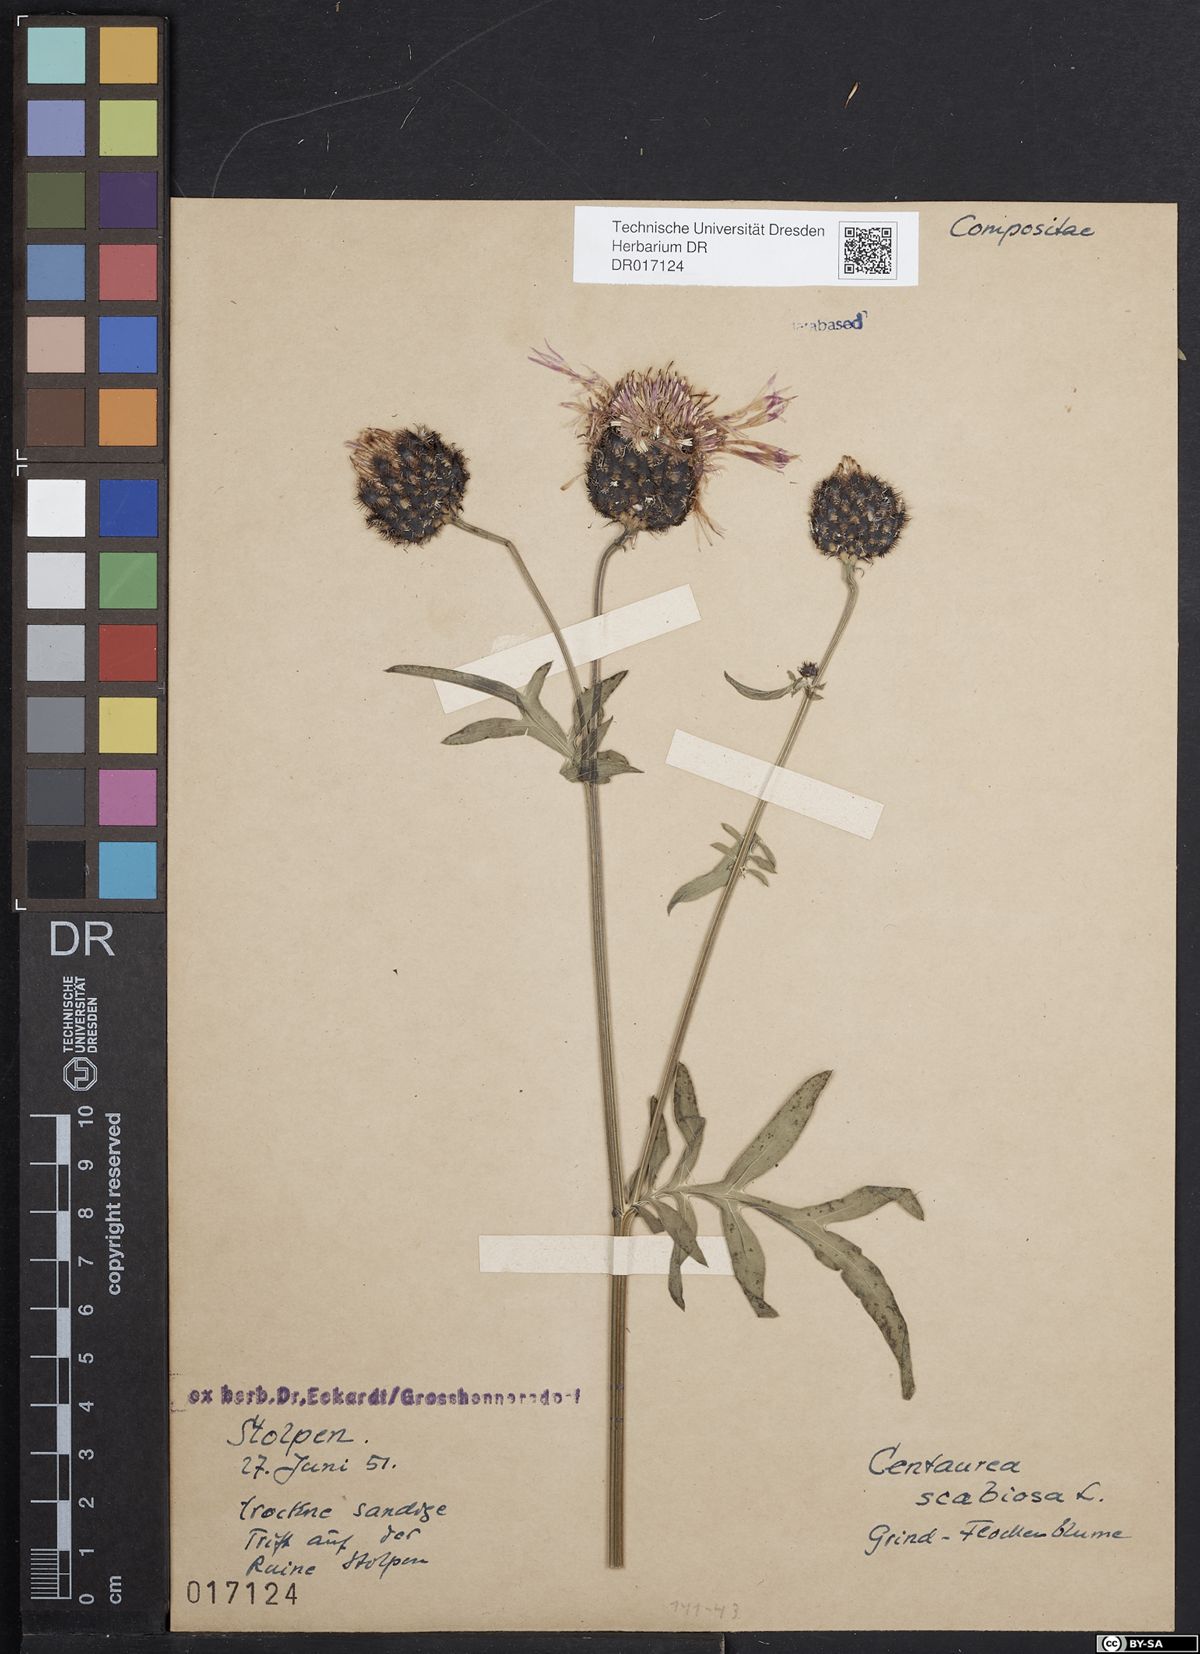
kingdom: Plantae
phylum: Tracheophyta
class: Magnoliopsida
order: Asterales
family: Asteraceae
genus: Centaurea
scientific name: Centaurea scabiosa
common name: Greater knapweed
